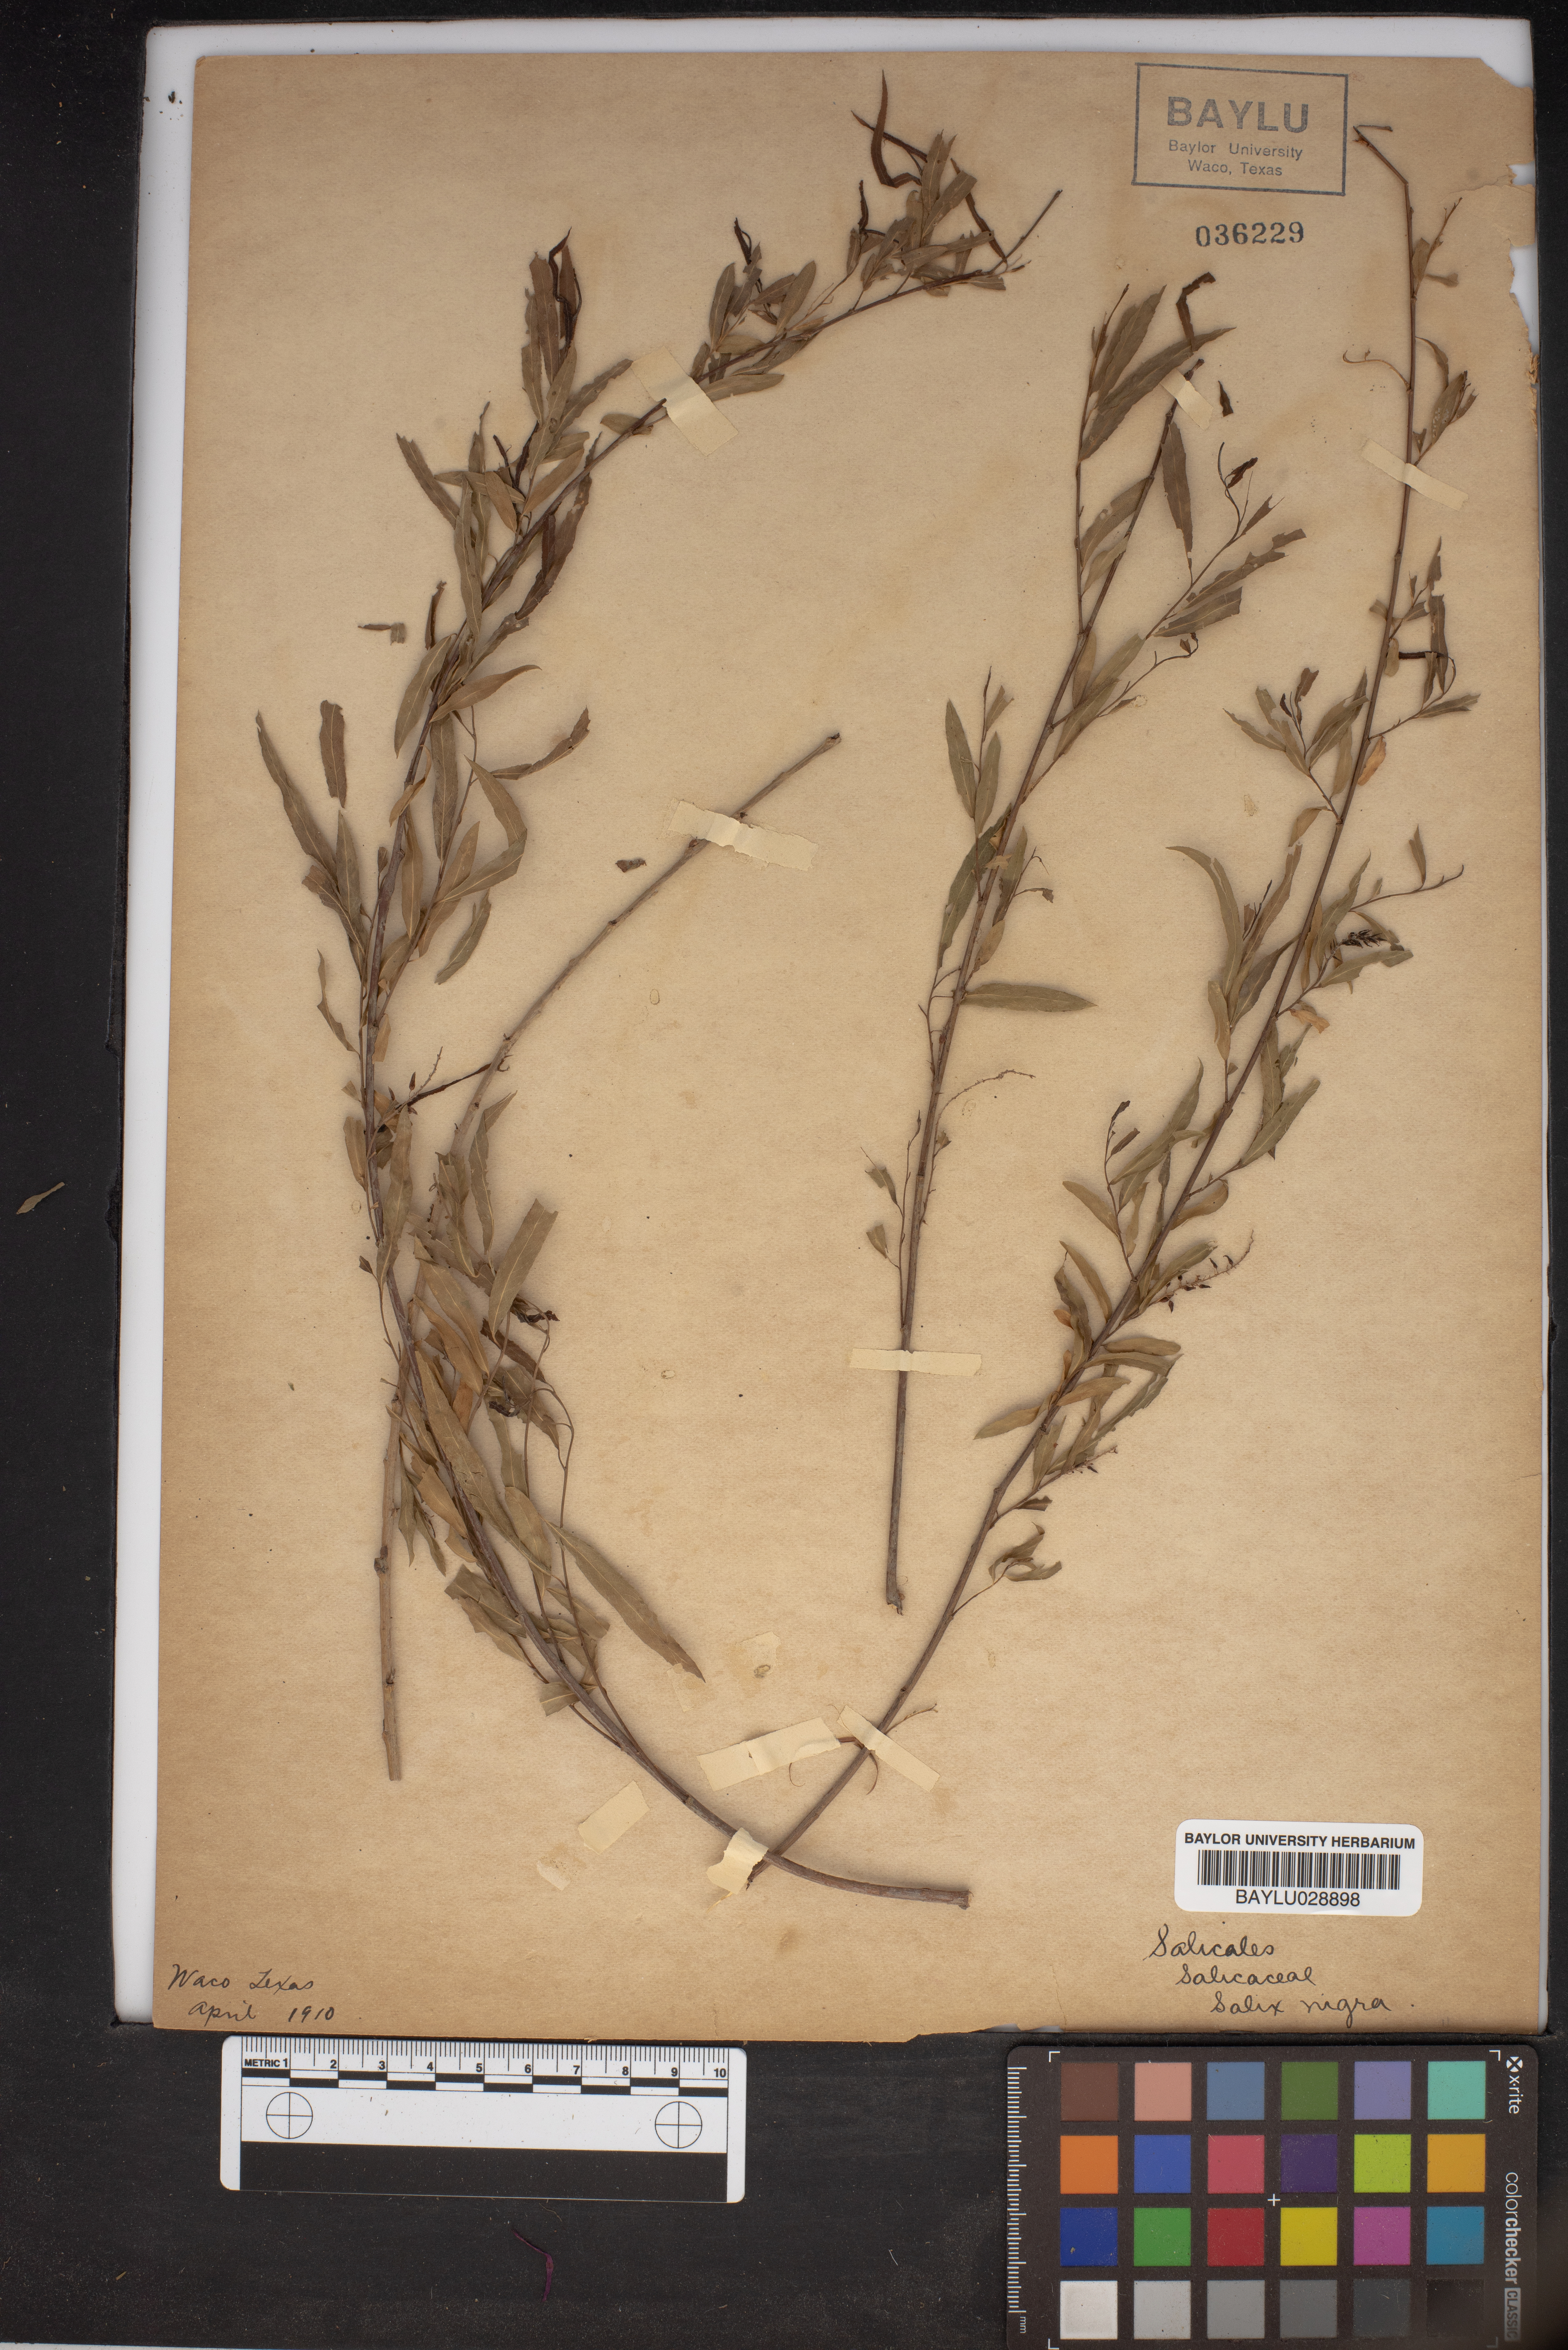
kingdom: Plantae
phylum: Tracheophyta
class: Magnoliopsida
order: Malpighiales
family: Salicaceae
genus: Salix
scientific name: Salix nigra
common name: Black willow
